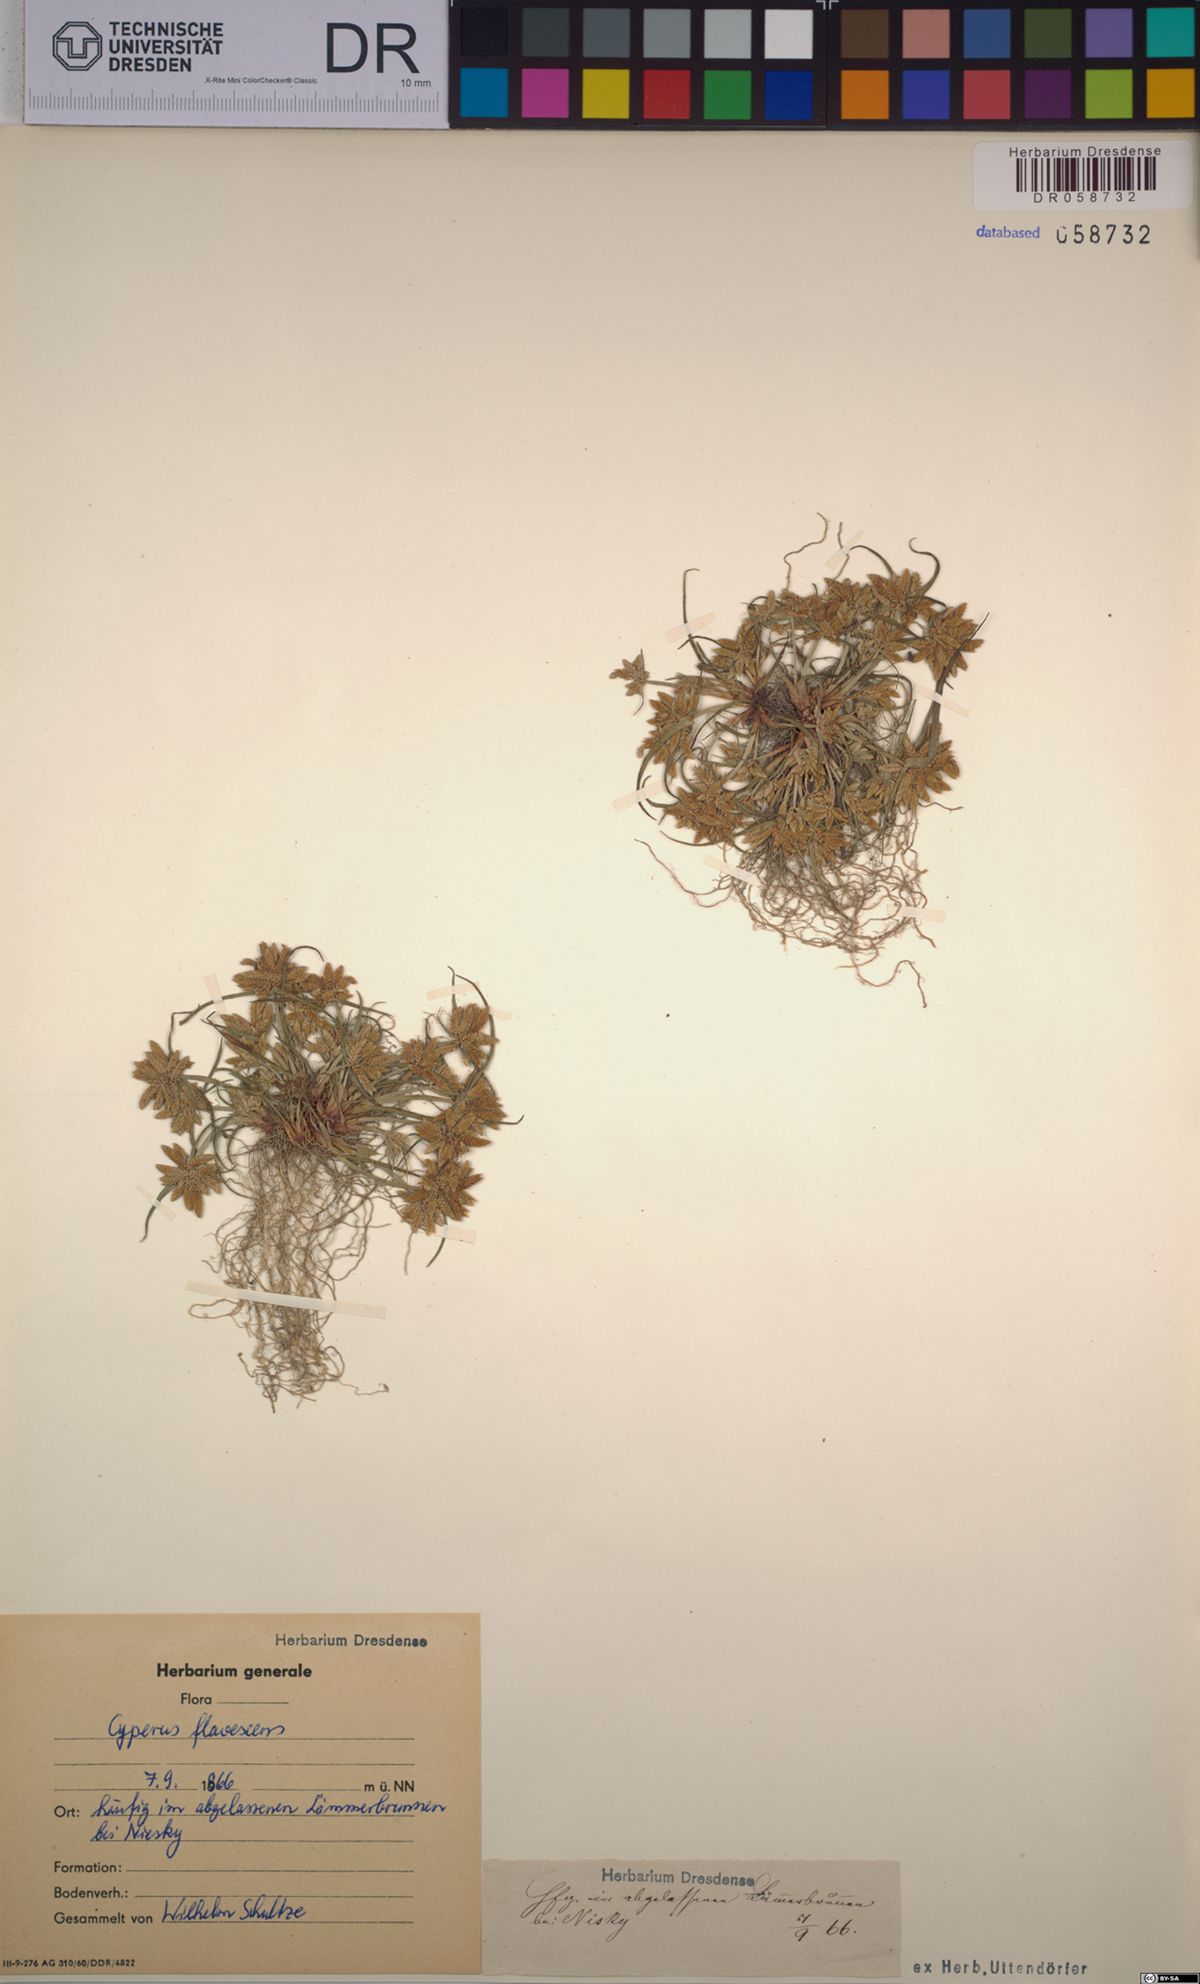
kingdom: Plantae
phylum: Tracheophyta
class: Liliopsida
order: Poales
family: Cyperaceae
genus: Cyperus
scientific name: Cyperus flavescens
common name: Yellow galingale
